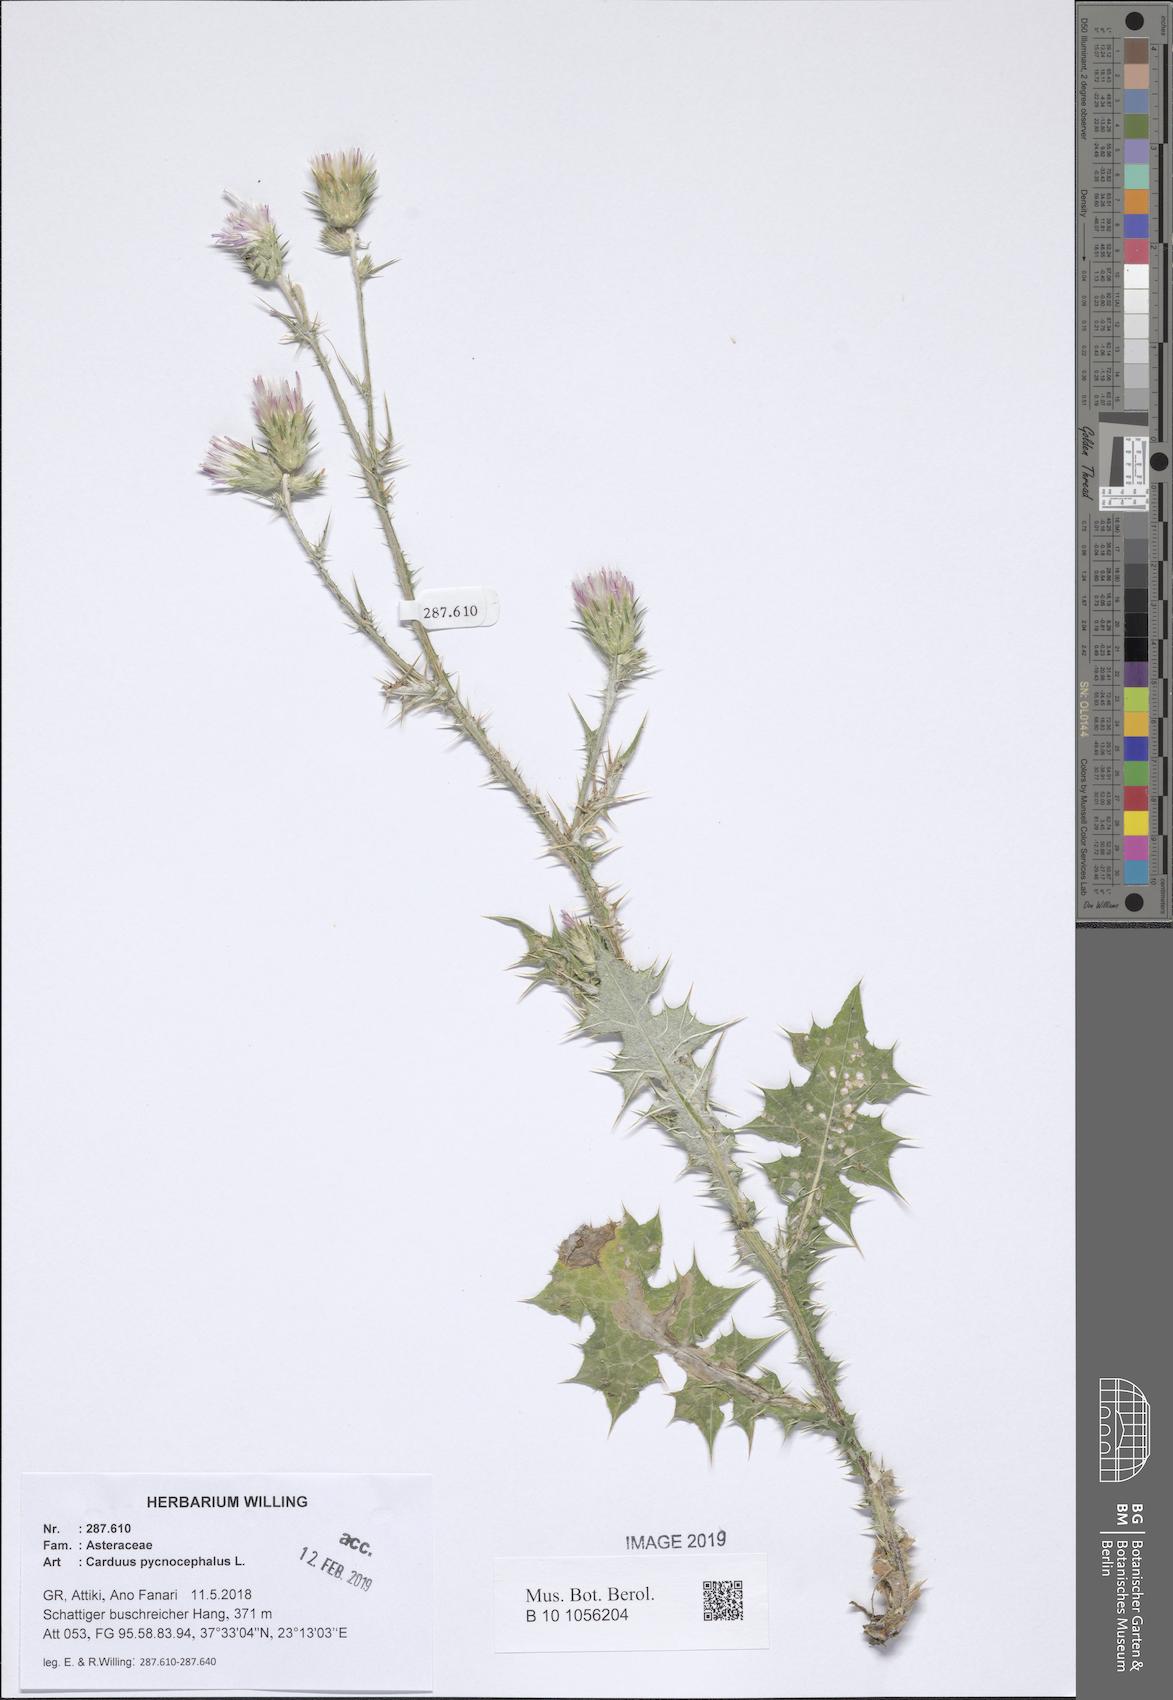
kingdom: Plantae
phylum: Tracheophyta
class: Magnoliopsida
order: Asterales
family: Asteraceae
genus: Carduus
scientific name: Carduus pycnocephalus
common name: Plymouth thistle
